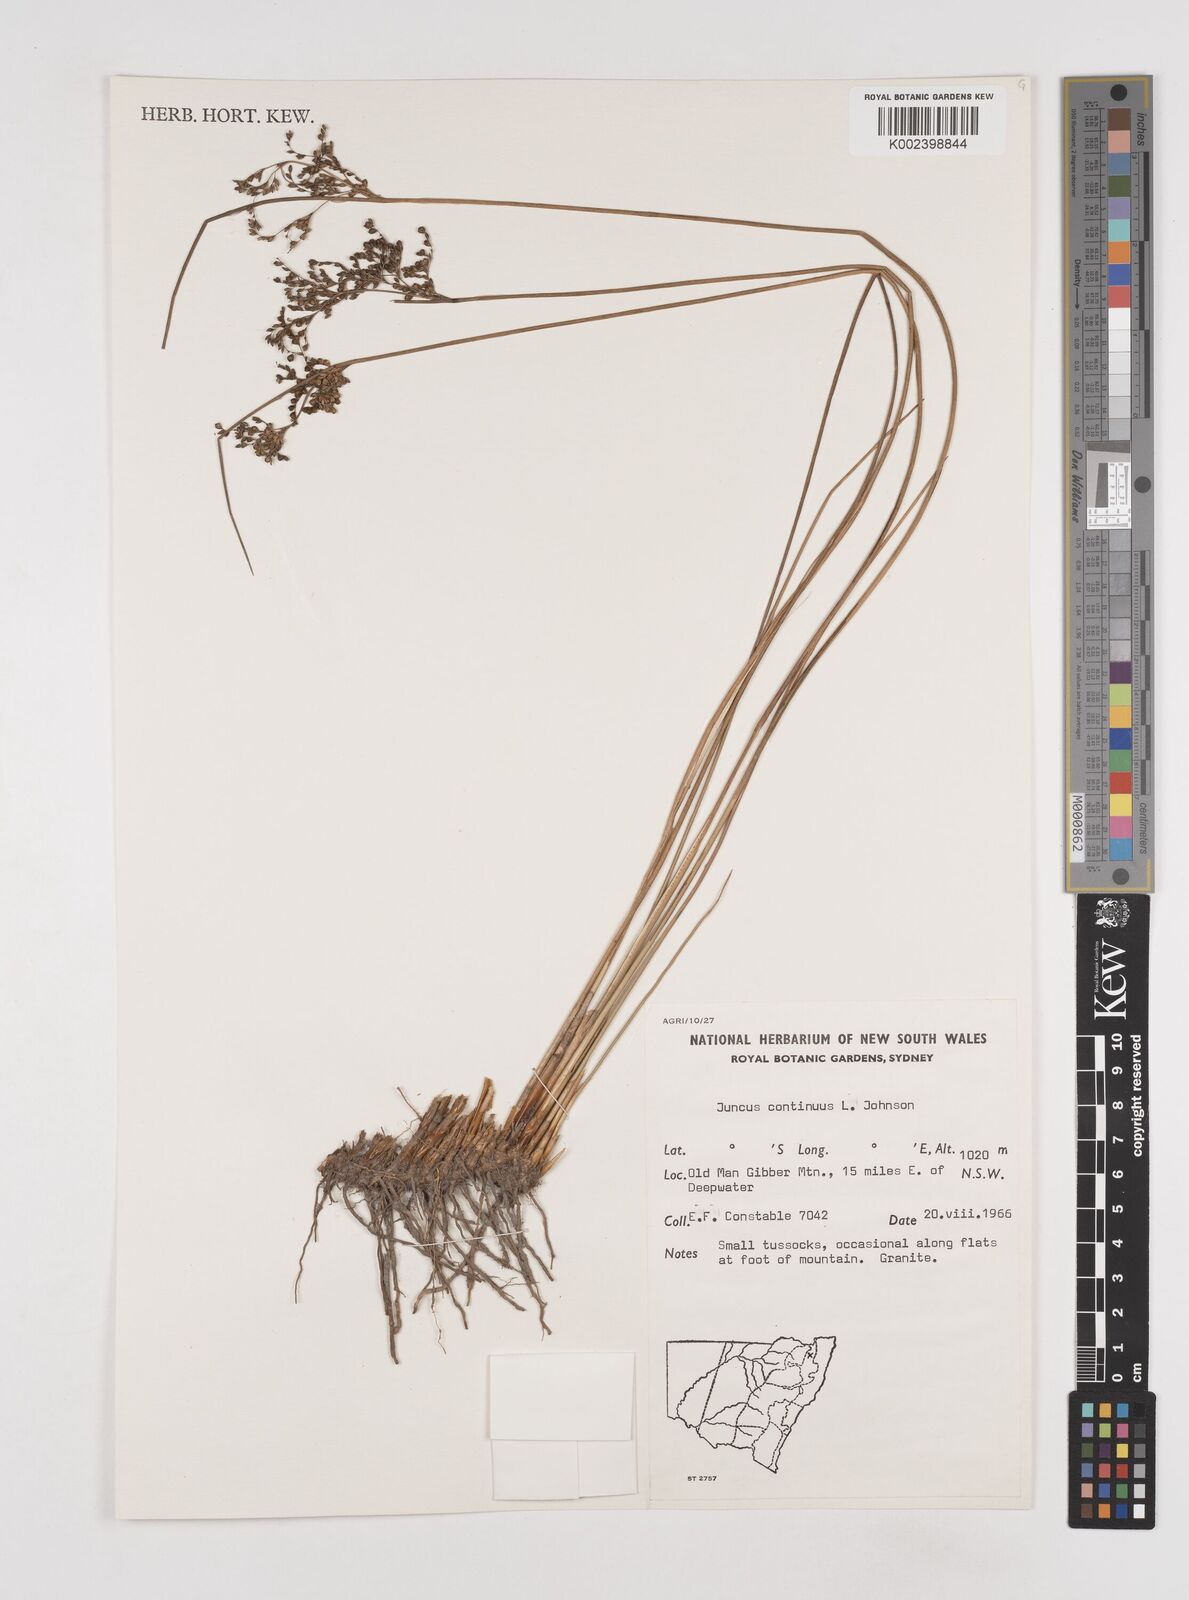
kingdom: Plantae
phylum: Tracheophyta
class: Liliopsida
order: Poales
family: Juncaceae
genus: Juncus
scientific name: Juncus continuus
